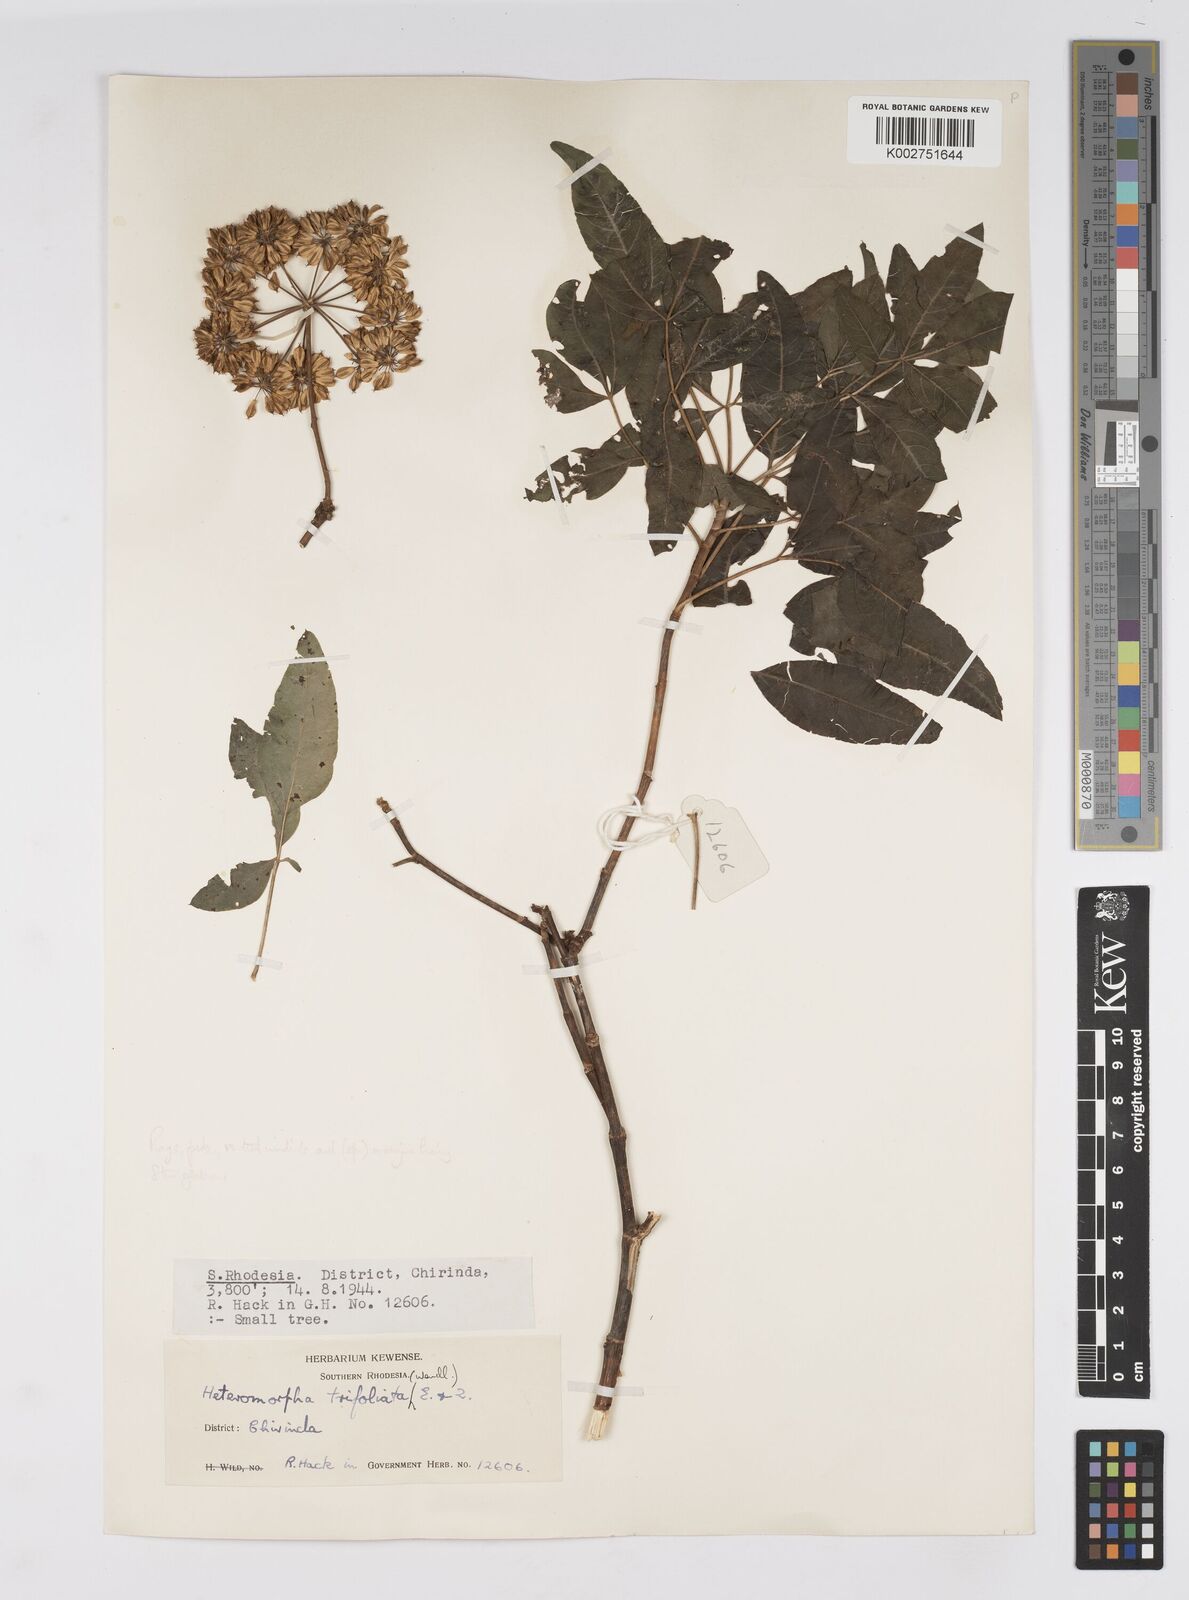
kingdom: Plantae
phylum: Tracheophyta
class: Magnoliopsida
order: Apiales
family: Apiaceae
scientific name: Apiaceae
